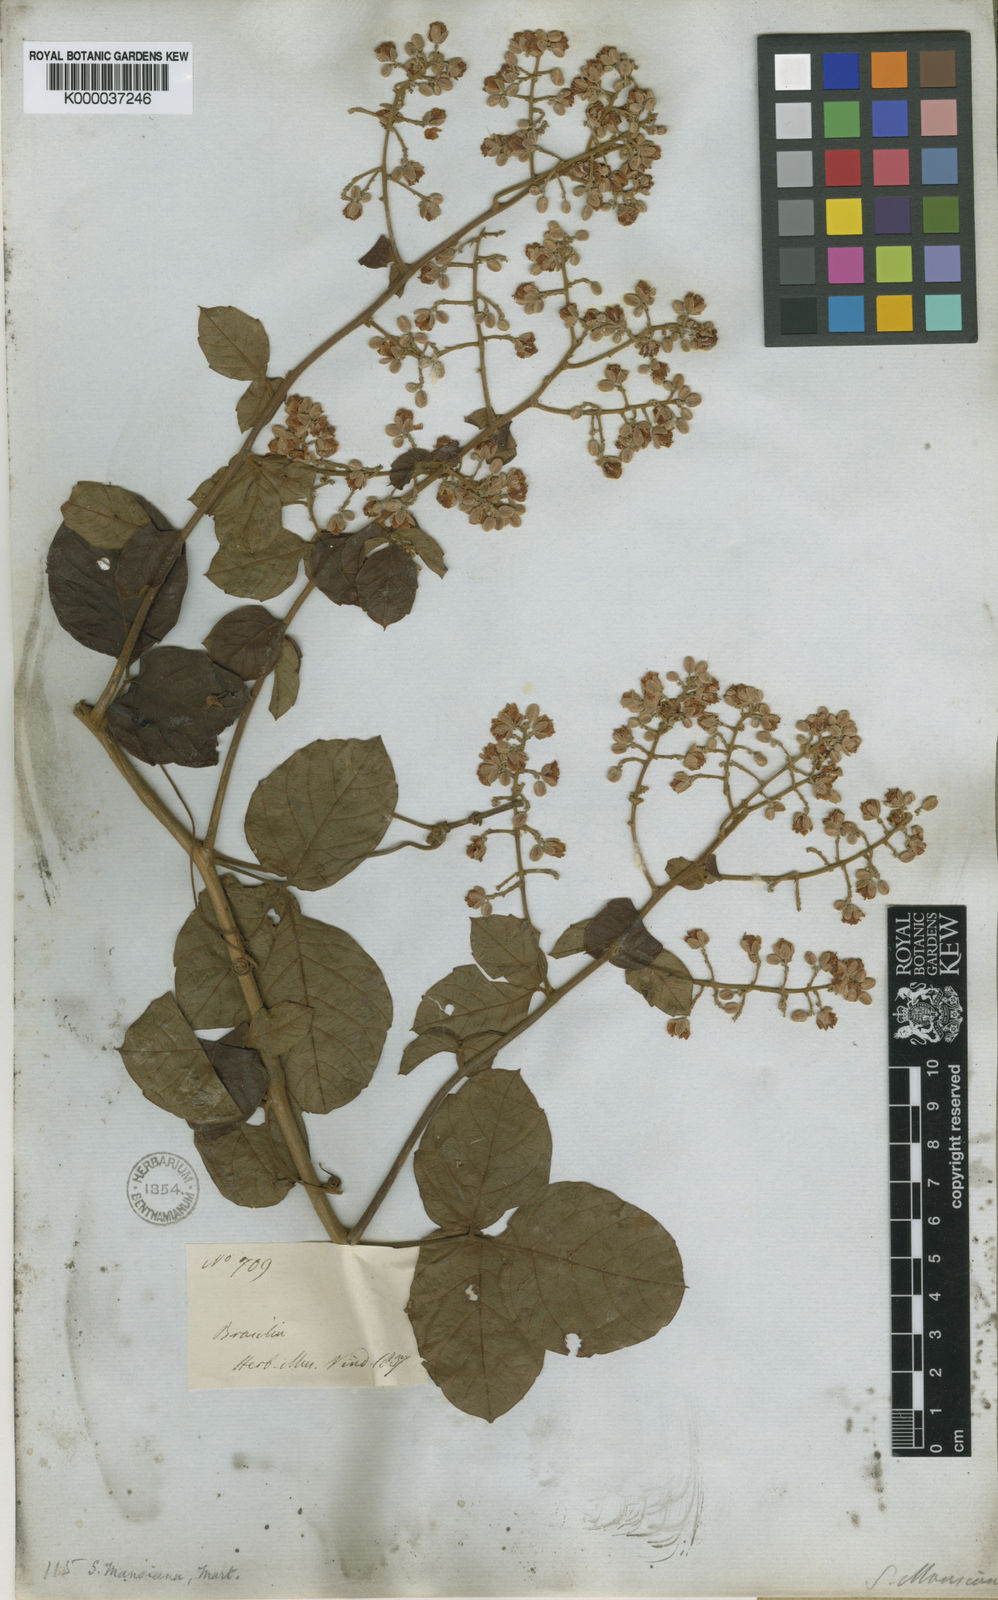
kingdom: Plantae
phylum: Tracheophyta
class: Magnoliopsida
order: Sapindales
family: Sapindaceae
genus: Serjania
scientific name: Serjania mansiana
